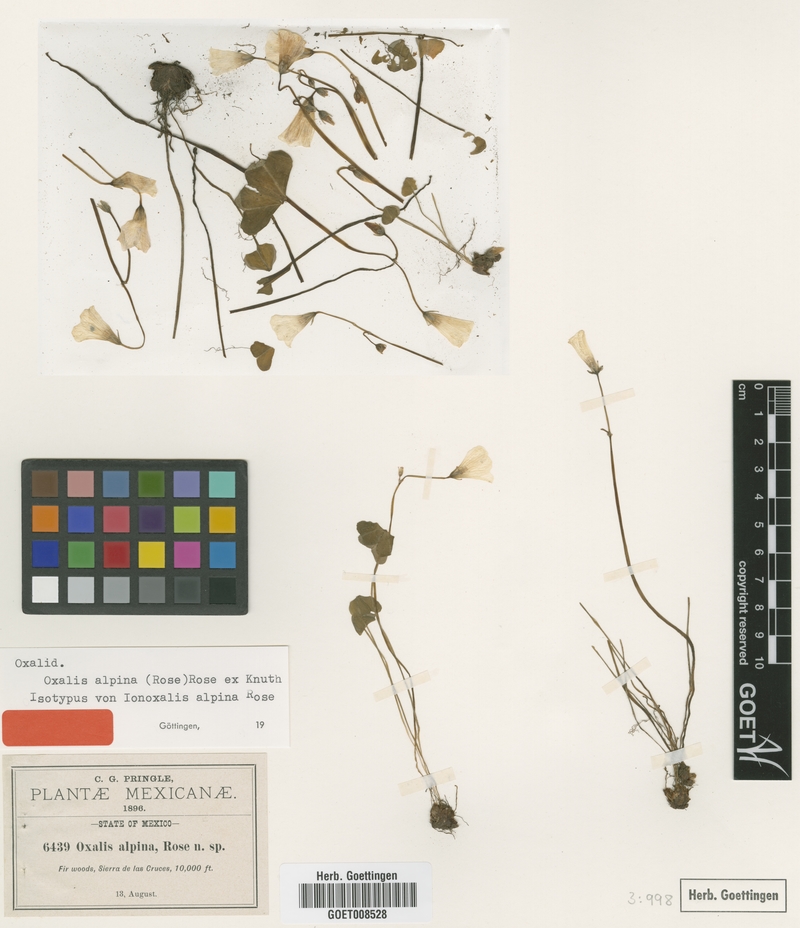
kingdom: Plantae
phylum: Tracheophyta
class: Magnoliopsida
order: Oxalidales
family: Oxalidaceae
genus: Oxalis
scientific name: Oxalis alpina
